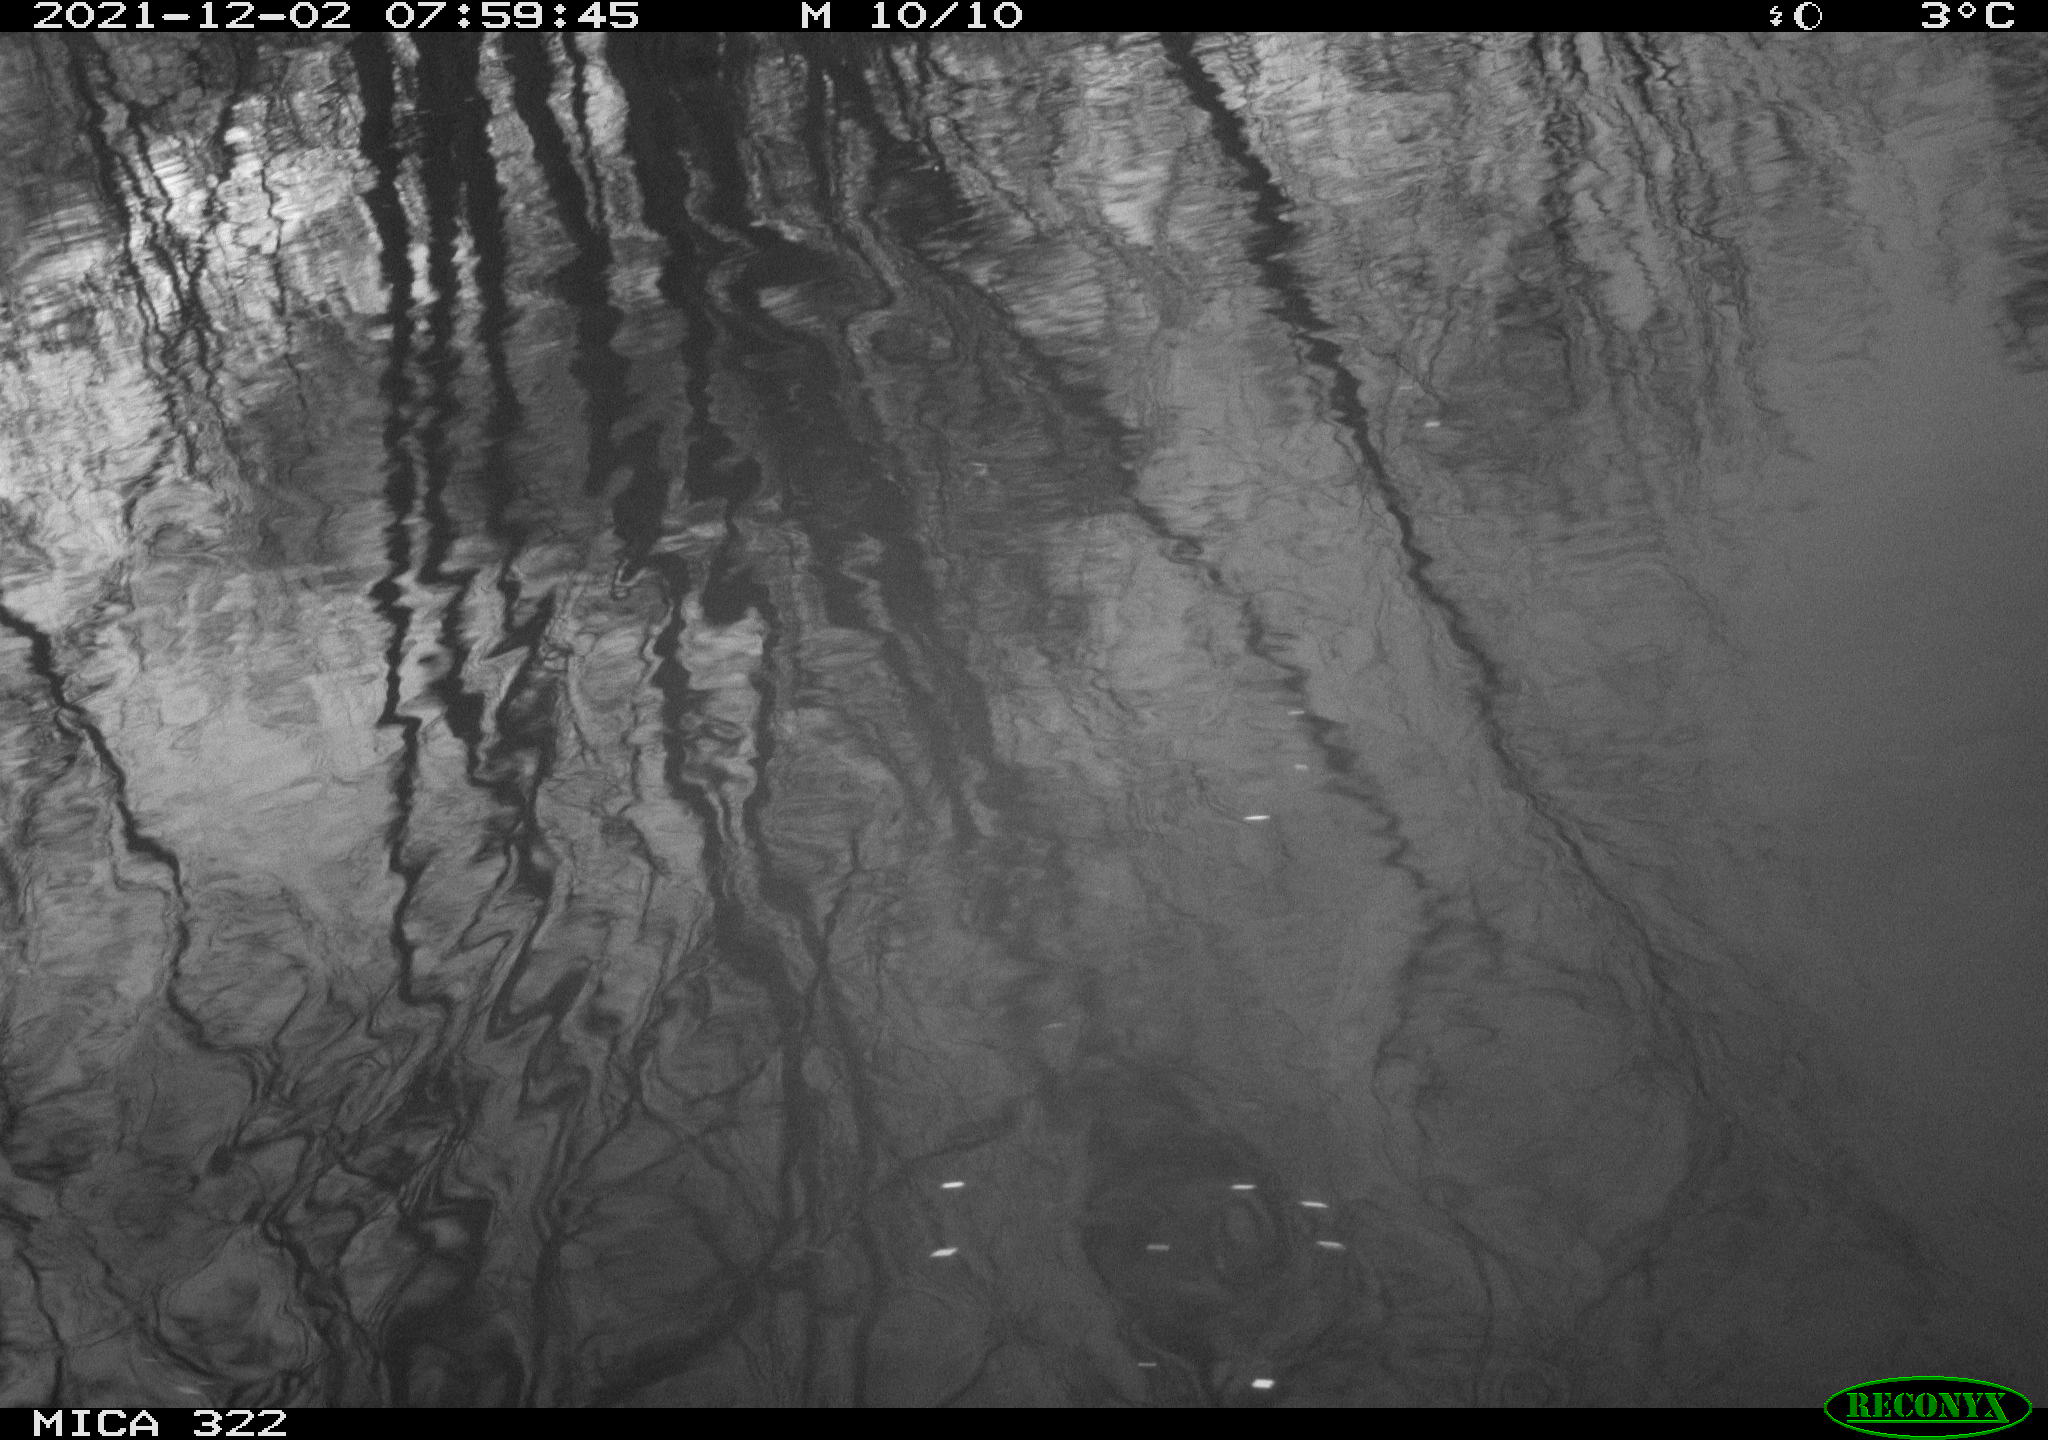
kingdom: Animalia
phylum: Chordata
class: Aves
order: Gruiformes
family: Rallidae
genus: Fulica
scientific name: Fulica atra
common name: Eurasian coot
